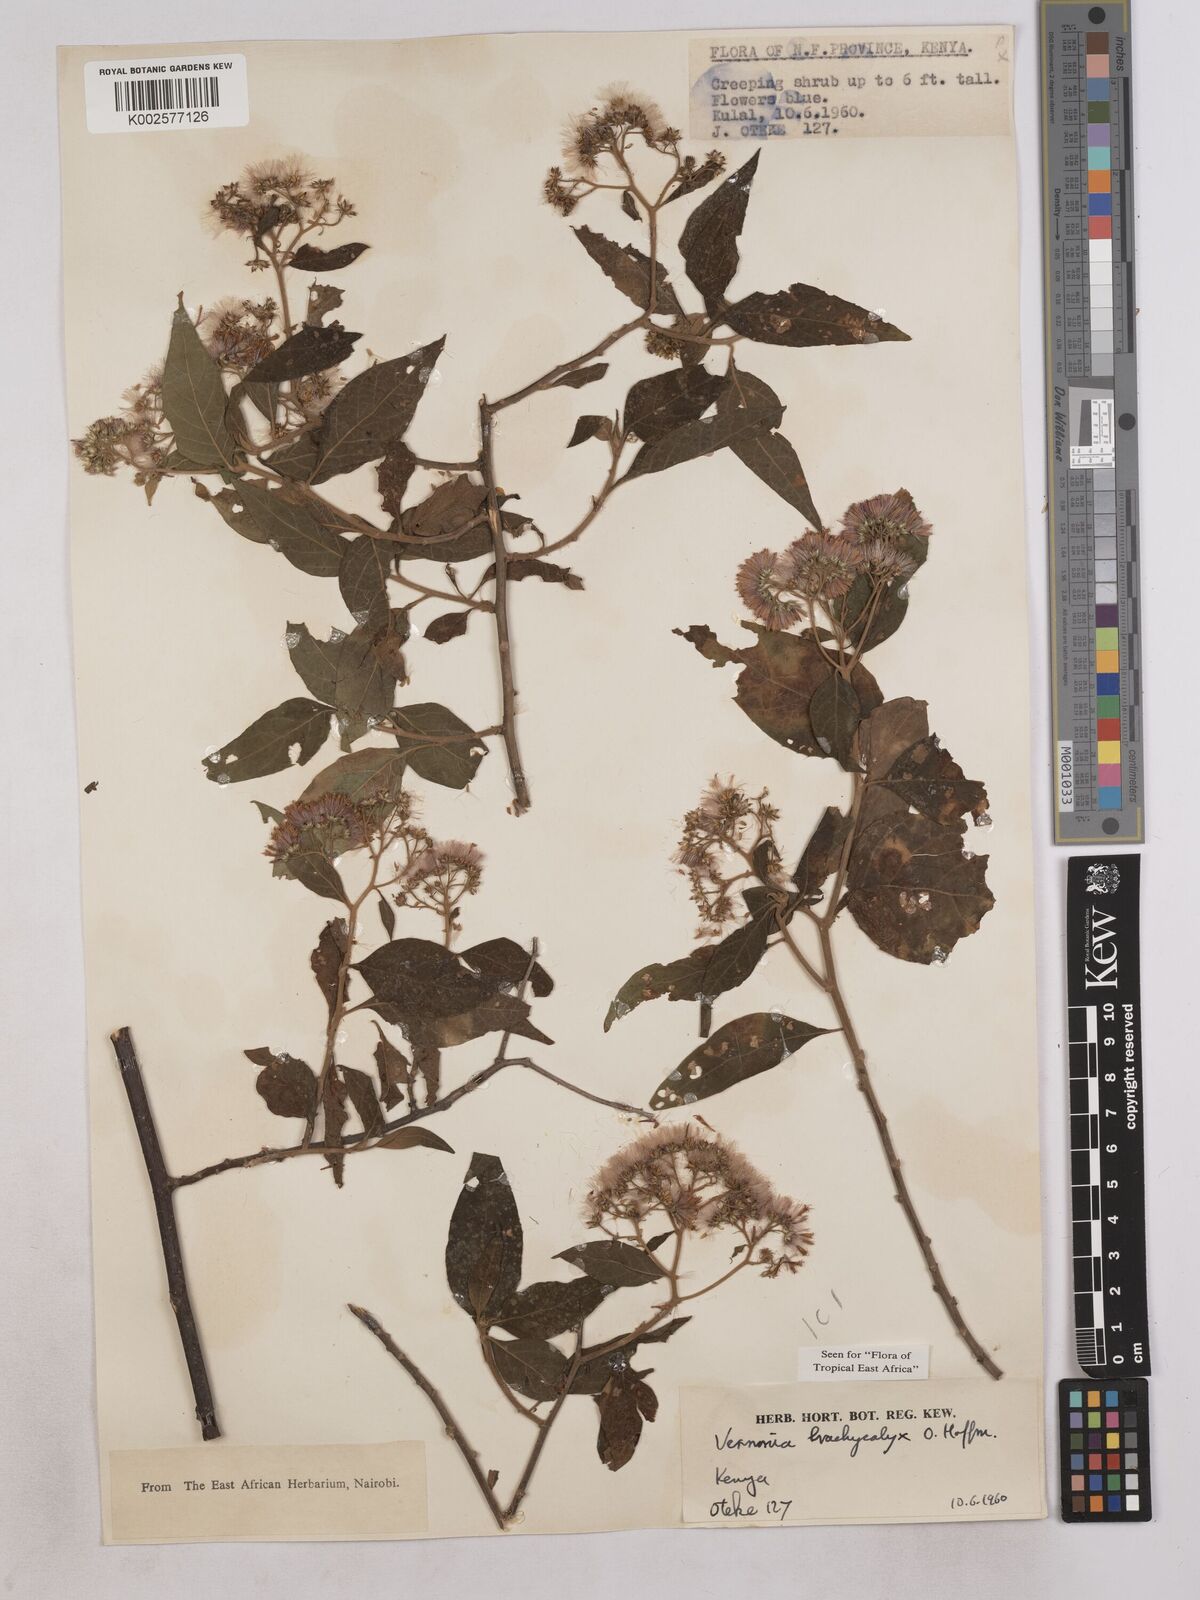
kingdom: Plantae
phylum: Tracheophyta
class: Magnoliopsida
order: Asterales
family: Asteraceae
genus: Hoffmannanthus
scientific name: Hoffmannanthus abbotianus
